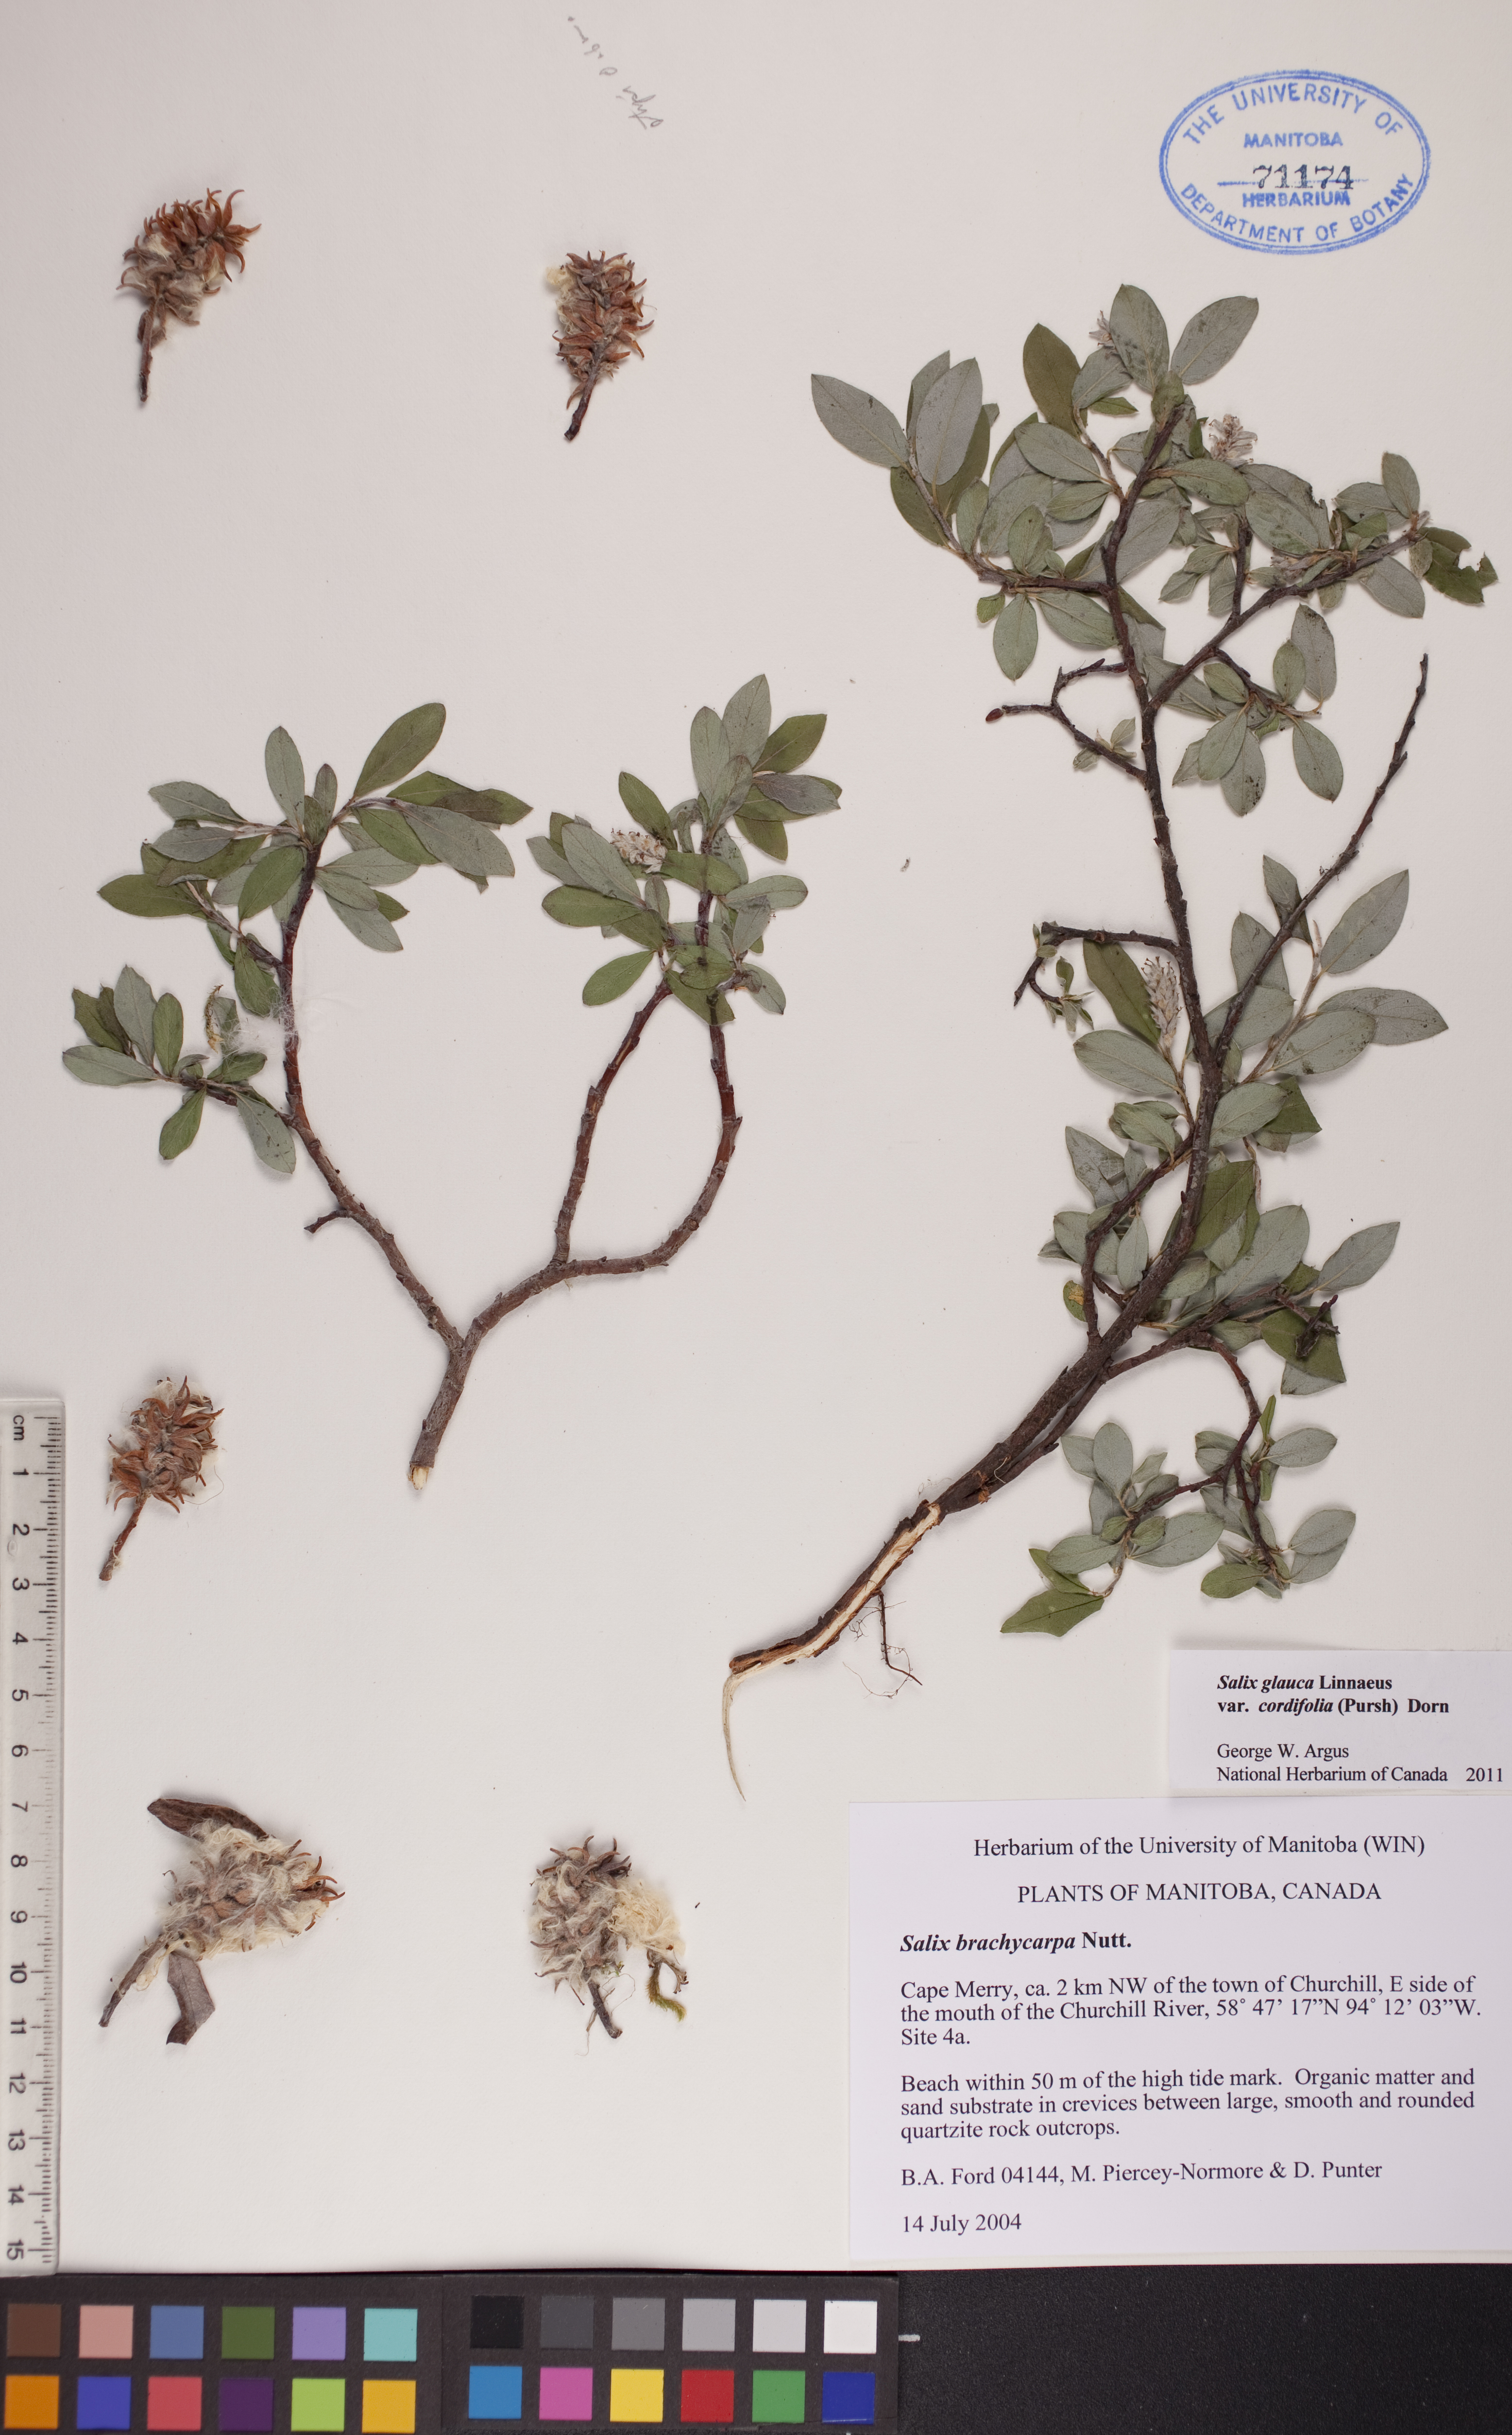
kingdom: Plantae
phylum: Tracheophyta
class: Magnoliopsida
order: Malpighiales
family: Salicaceae
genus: Salix
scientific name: Salix glauca
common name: Glaucous willow
